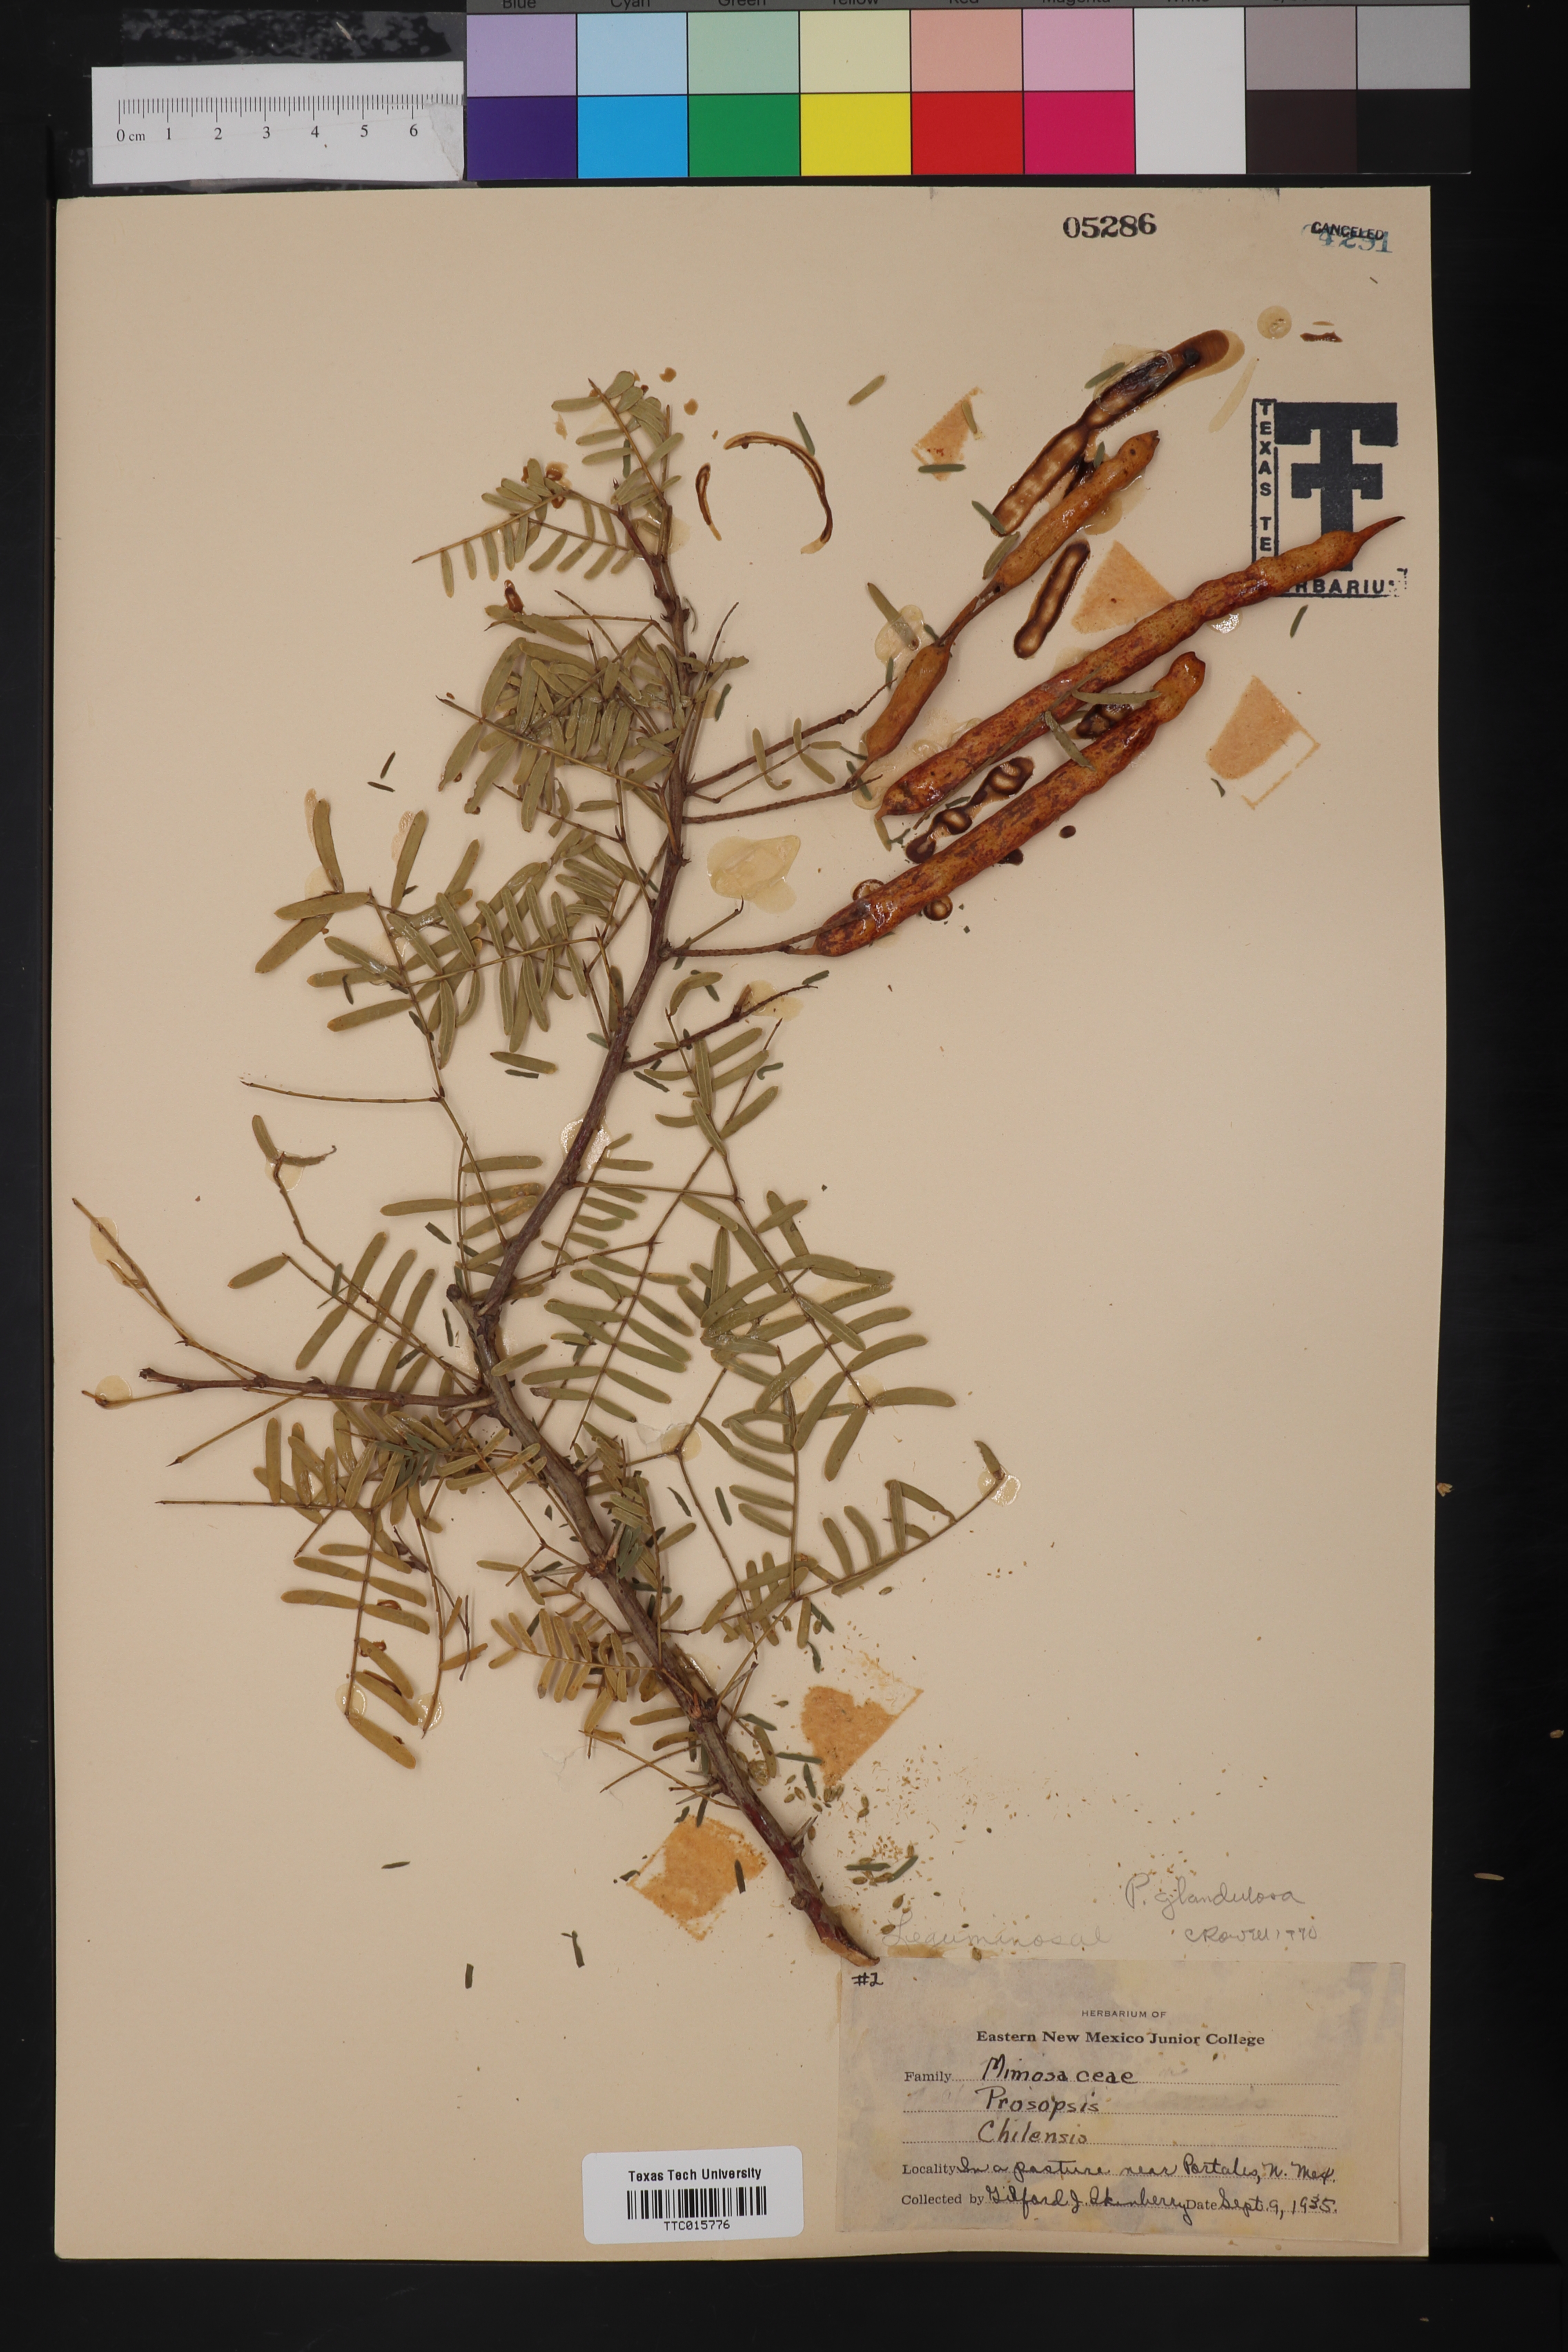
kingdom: Plantae
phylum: Tracheophyta
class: Magnoliopsida
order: Fabales
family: Fabaceae
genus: Prosopis
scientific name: Prosopis glandulosa
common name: Honey mesquite
